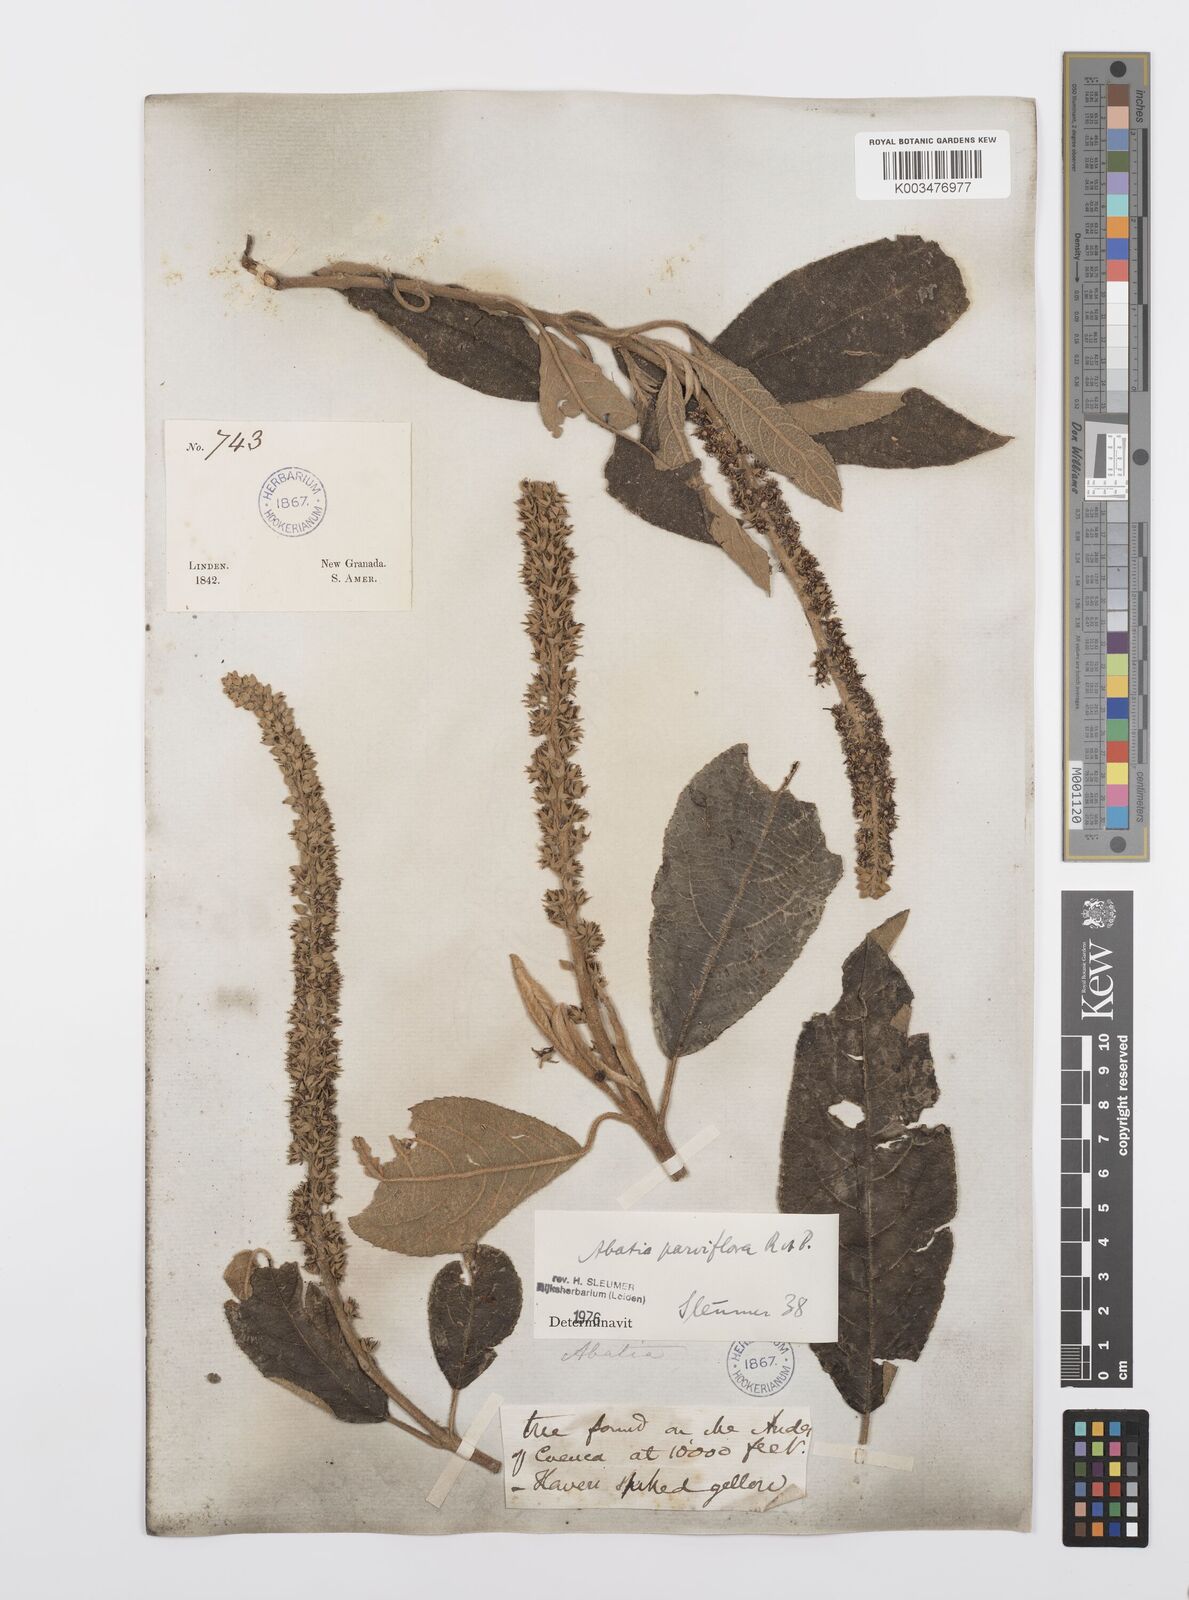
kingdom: Plantae
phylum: Tracheophyta
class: Magnoliopsida
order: Malpighiales
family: Salicaceae
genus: Abatia
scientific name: Abatia parviflora
